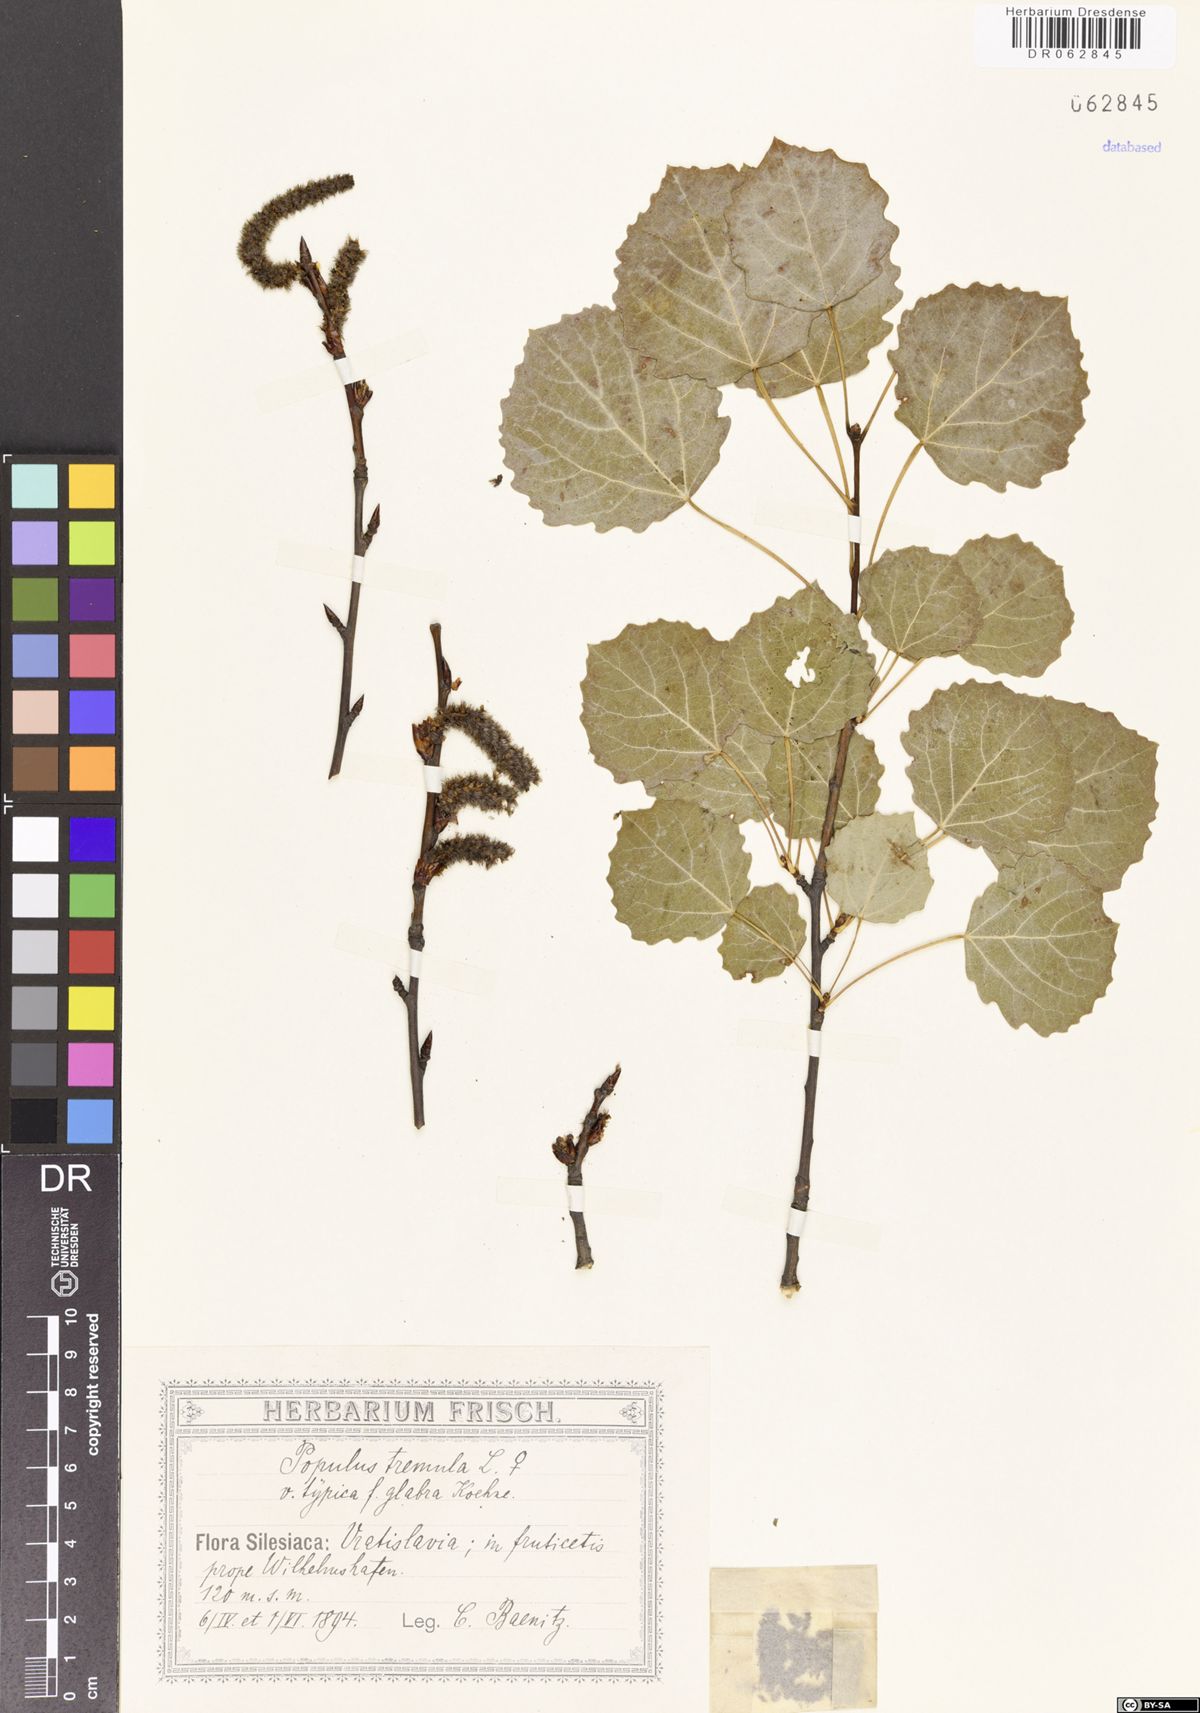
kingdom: Plantae
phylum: Tracheophyta
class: Magnoliopsida
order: Malpighiales
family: Salicaceae
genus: Populus
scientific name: Populus tremula
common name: European aspen
